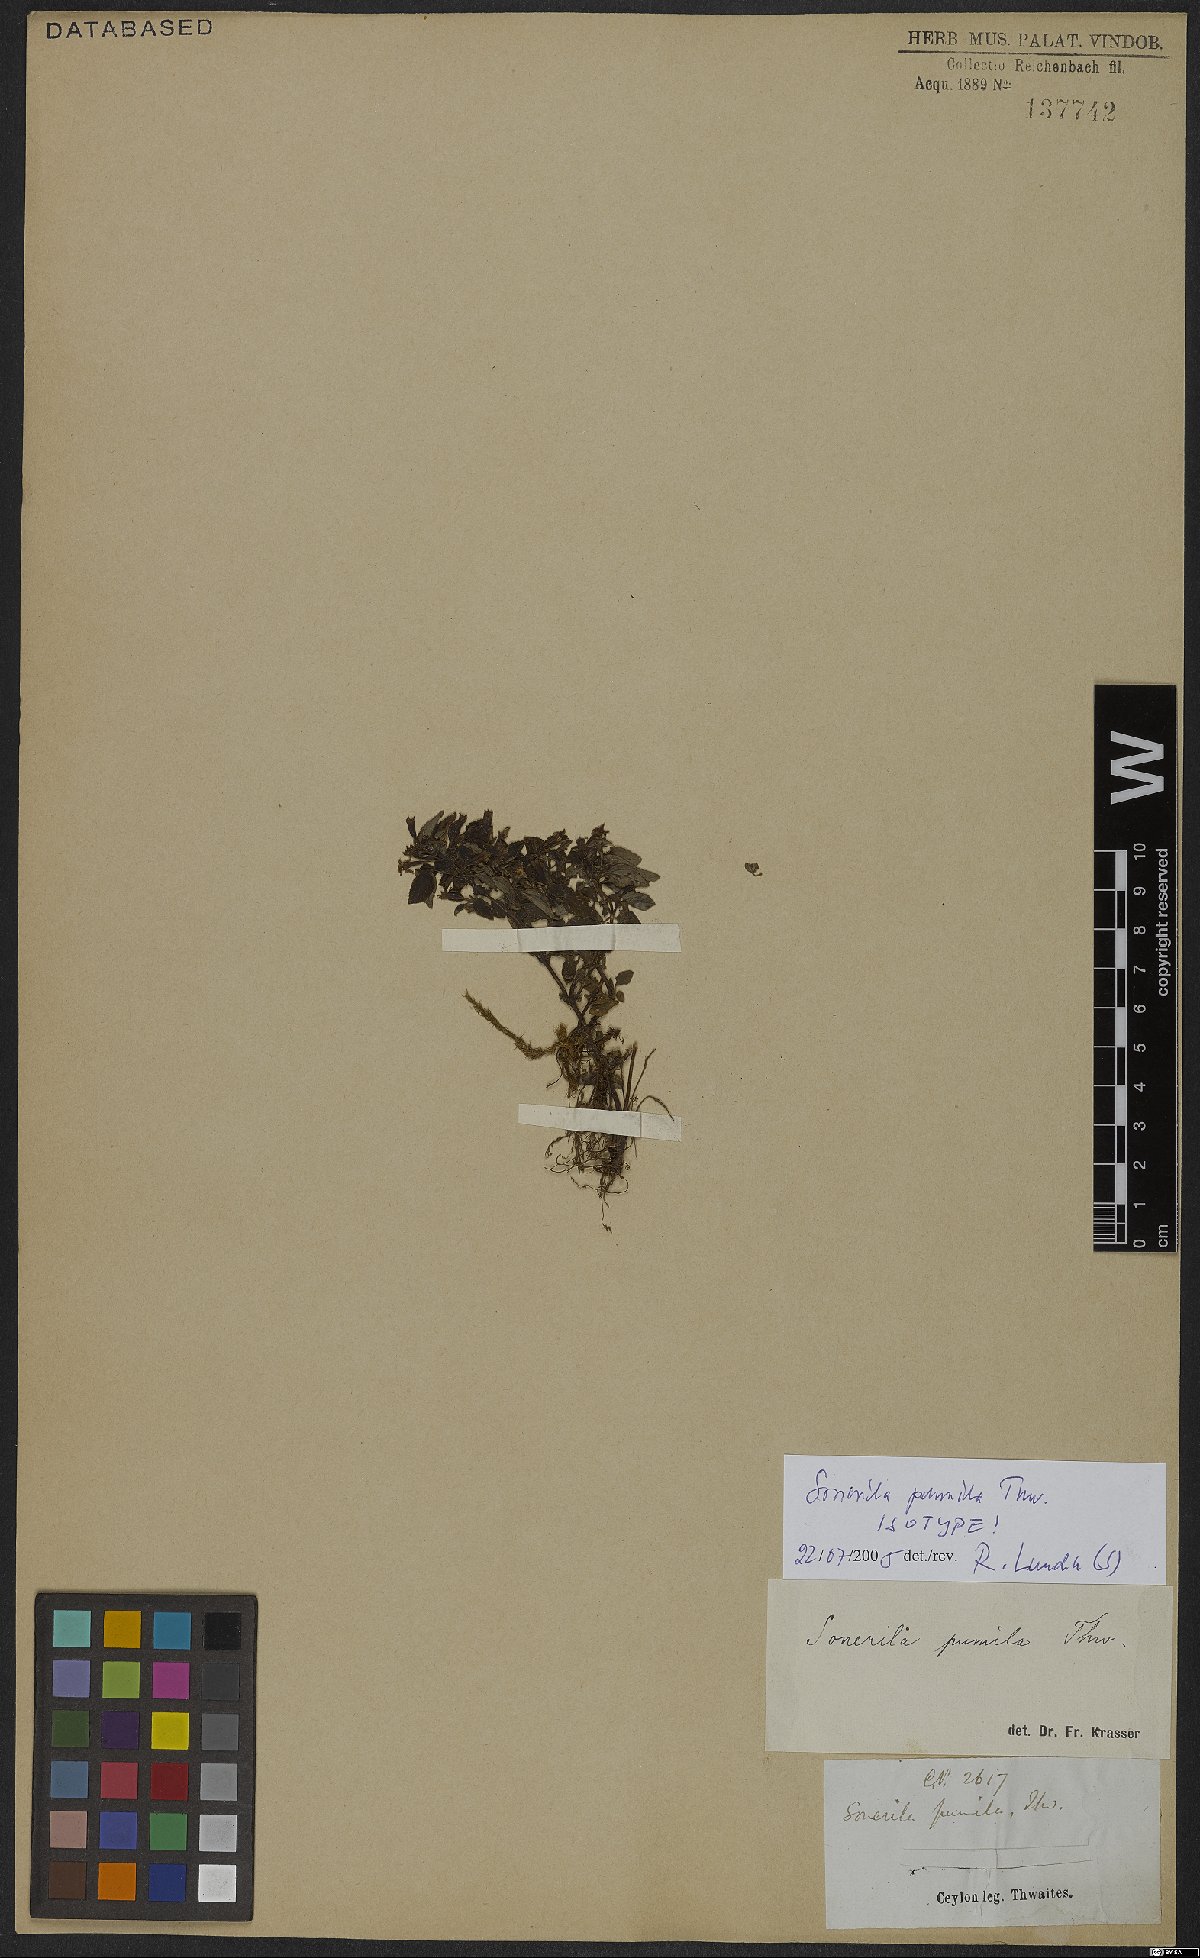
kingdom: Plantae
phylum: Tracheophyta
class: Magnoliopsida
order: Myrtales
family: Melastomataceae
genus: Sonerila
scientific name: Sonerila pumila
